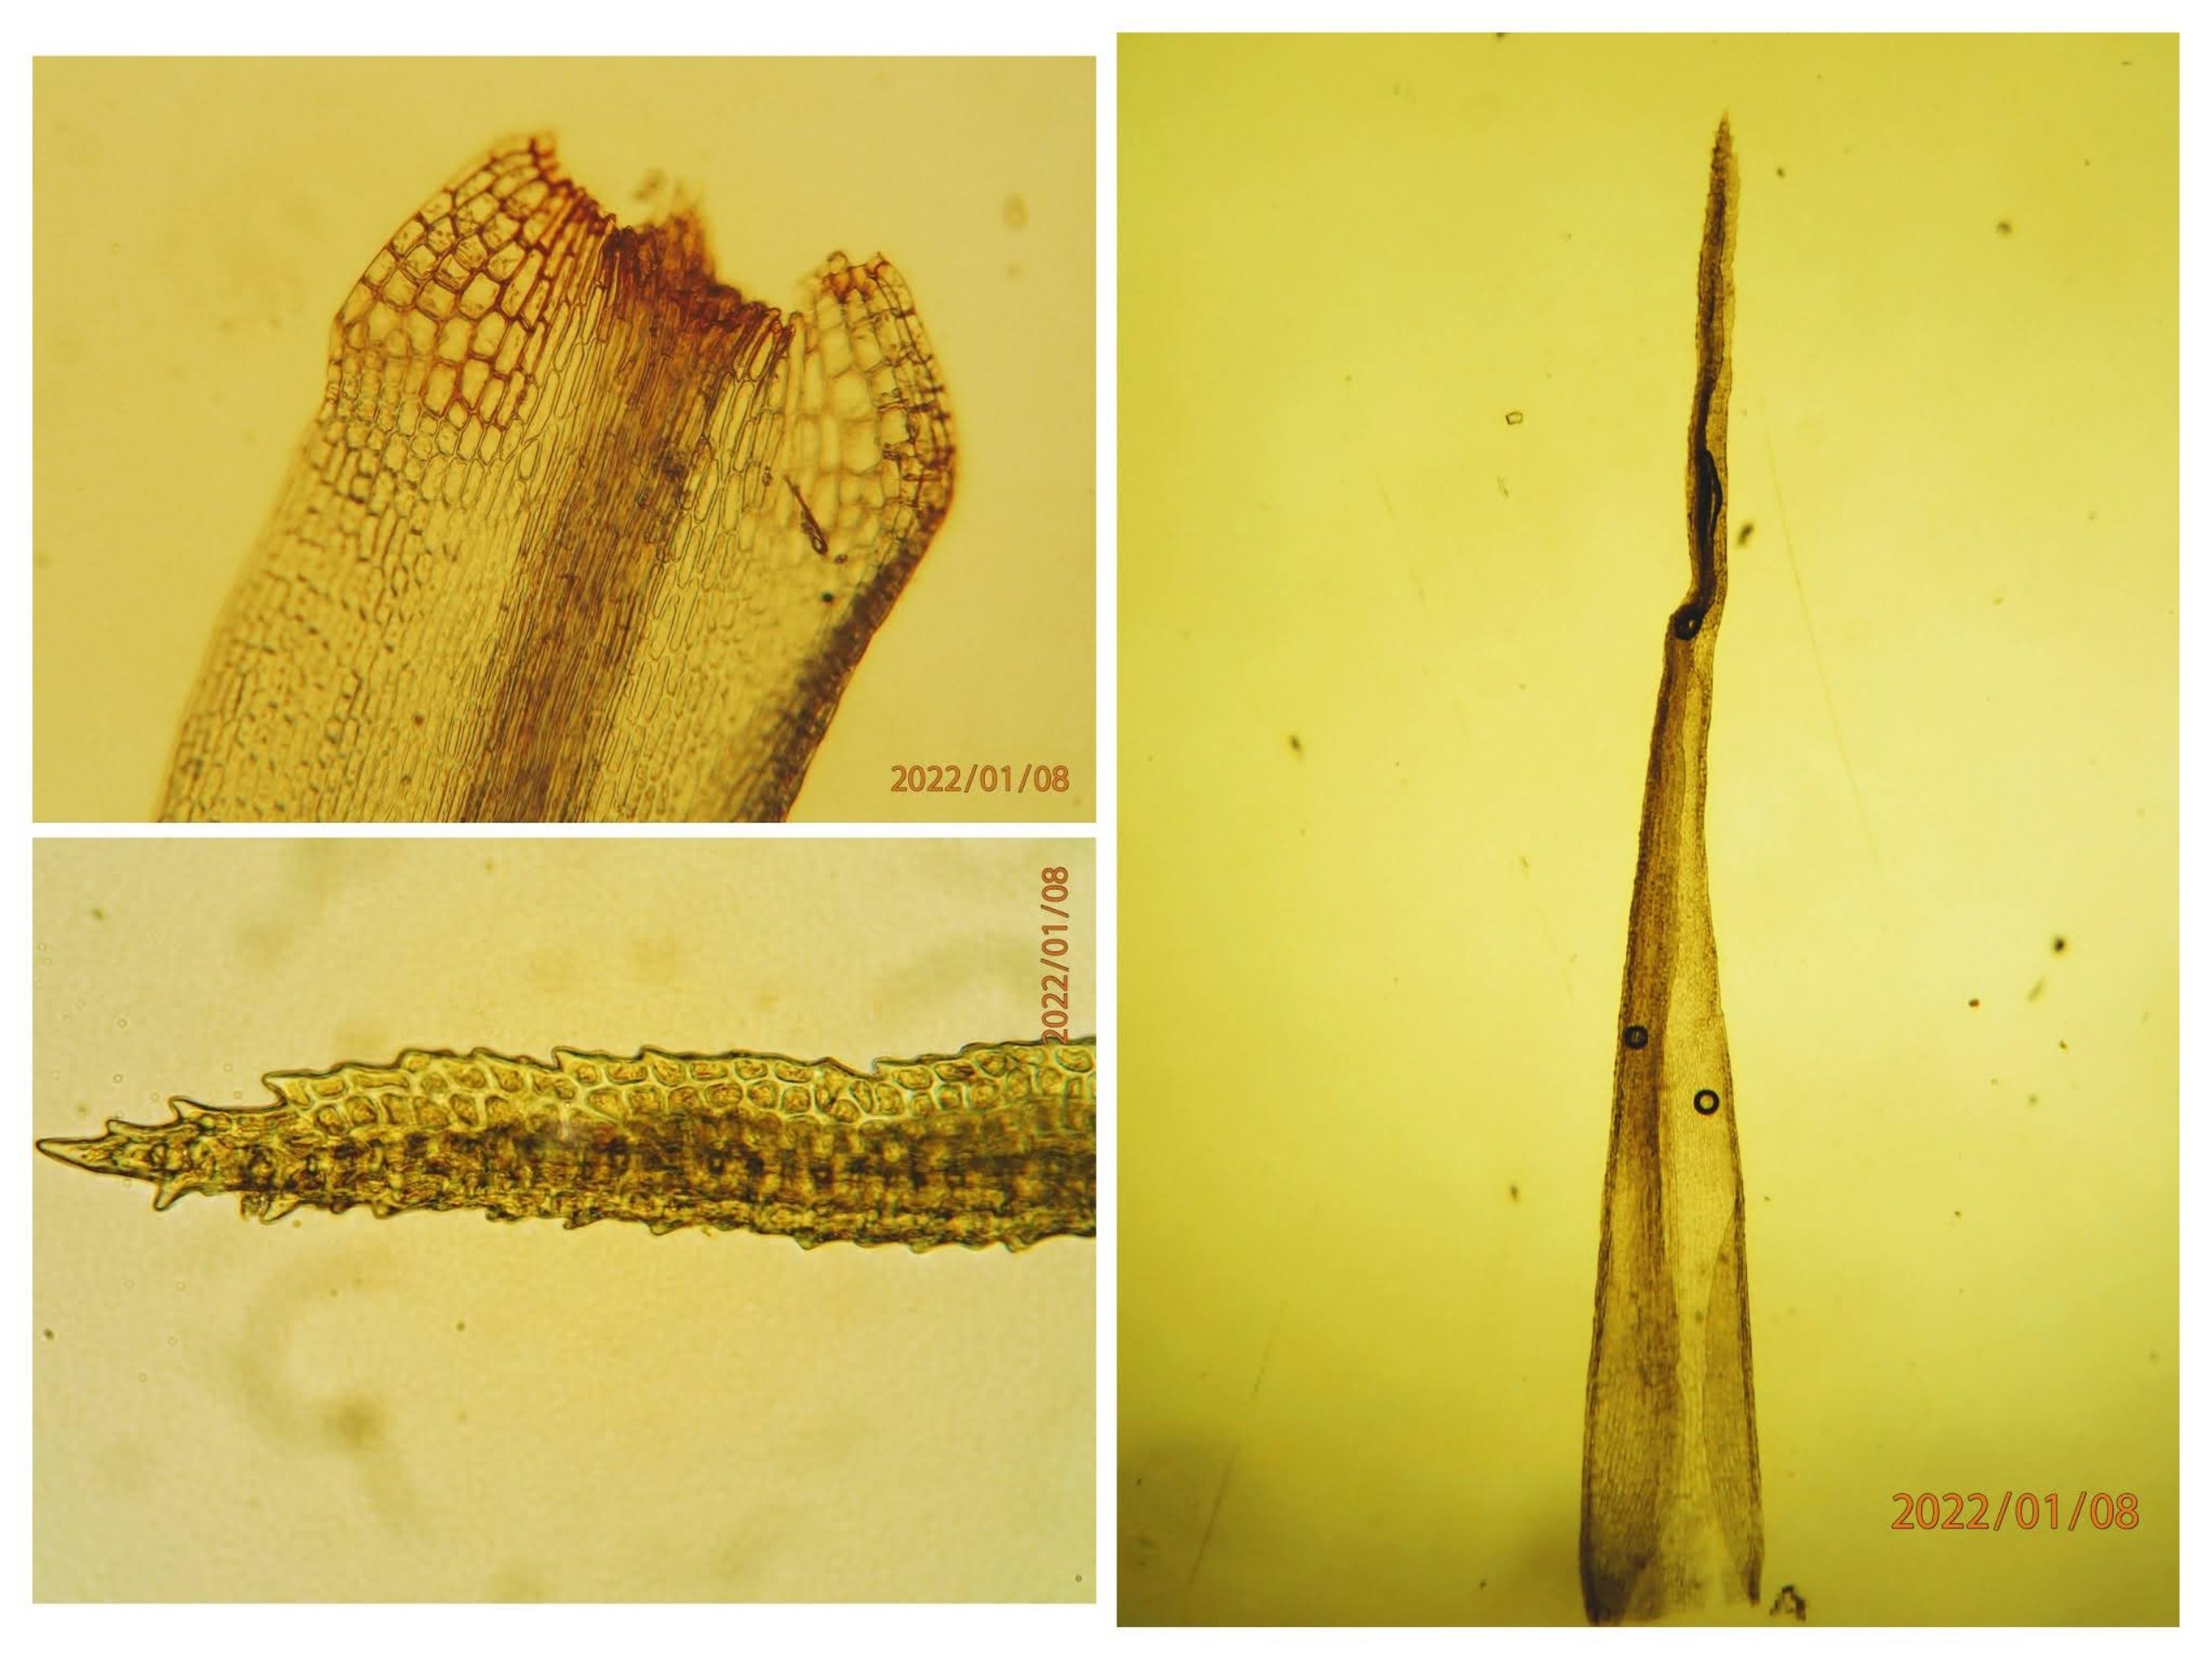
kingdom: Plantae
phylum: Bryophyta
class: Bryopsida
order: Dicranales
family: Dicranaceae
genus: Orthodicranum
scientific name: Orthodicranum montanum
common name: Tæt tyndvinge
